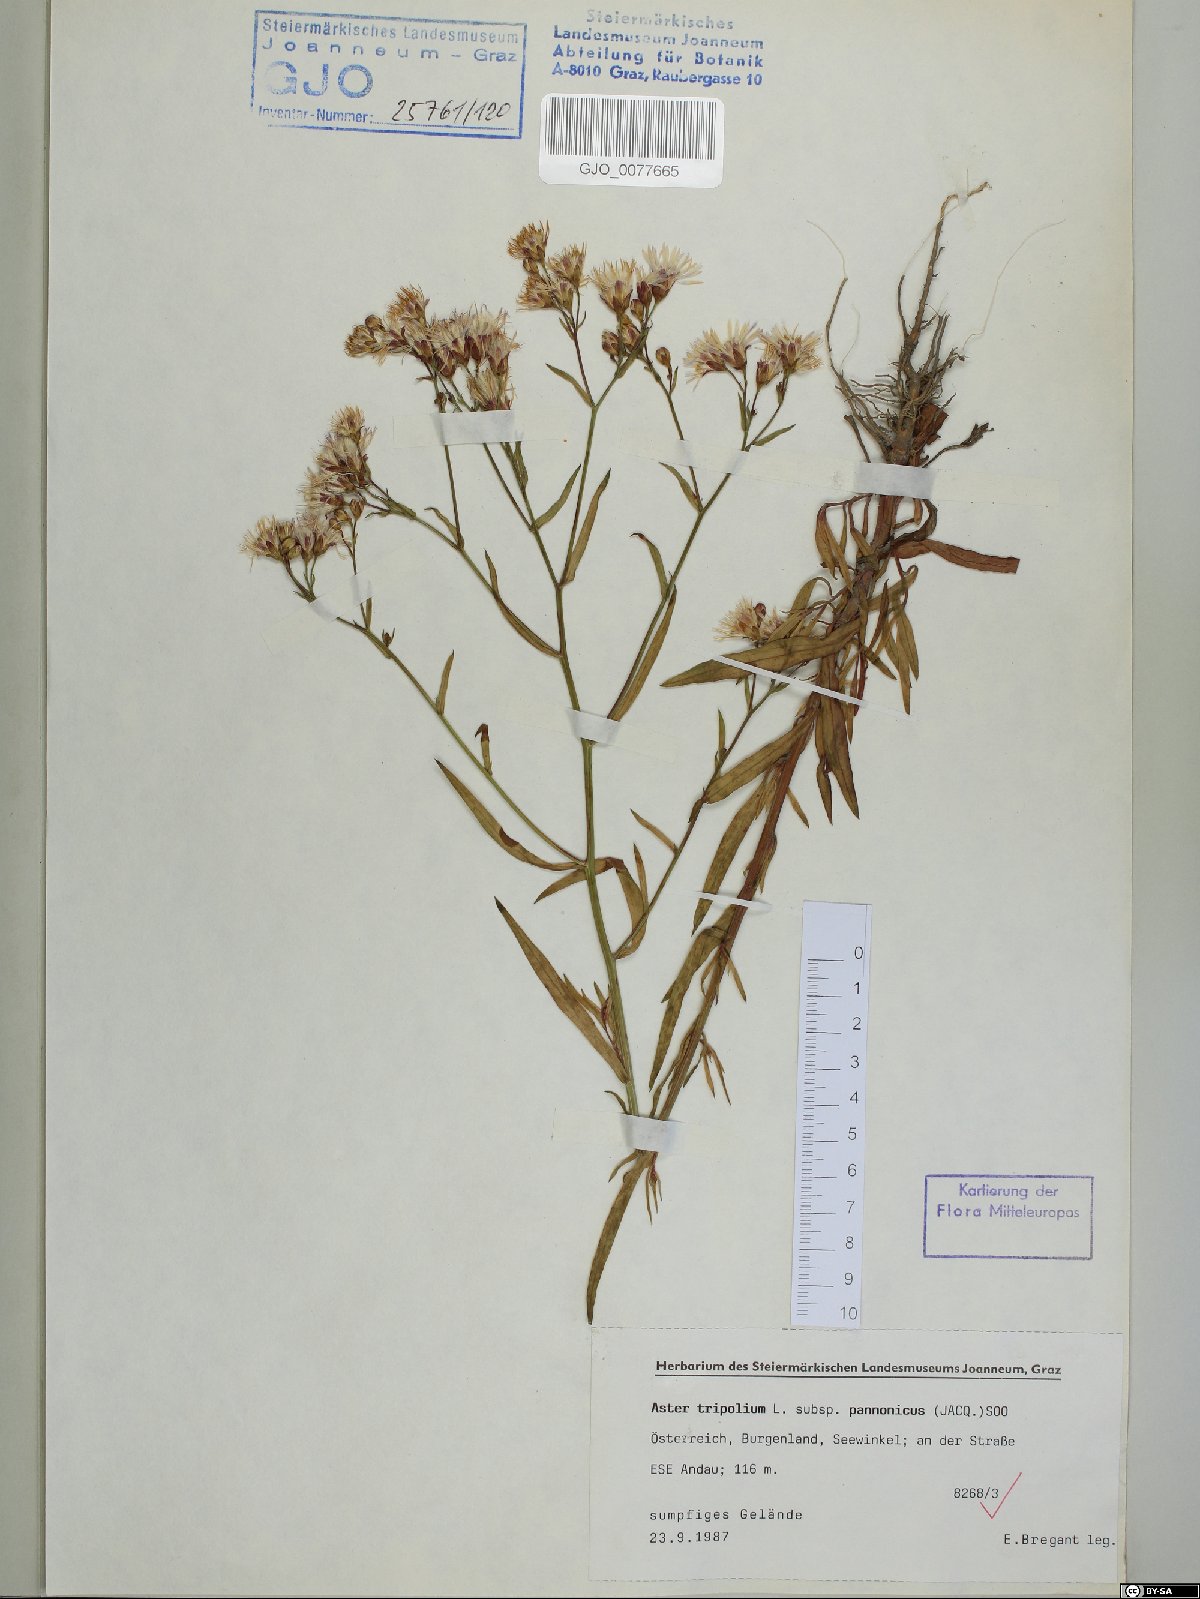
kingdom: Plantae
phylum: Tracheophyta
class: Magnoliopsida
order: Asterales
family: Asteraceae
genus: Tripolium
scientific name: Tripolium pannonicum
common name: Sea aster
